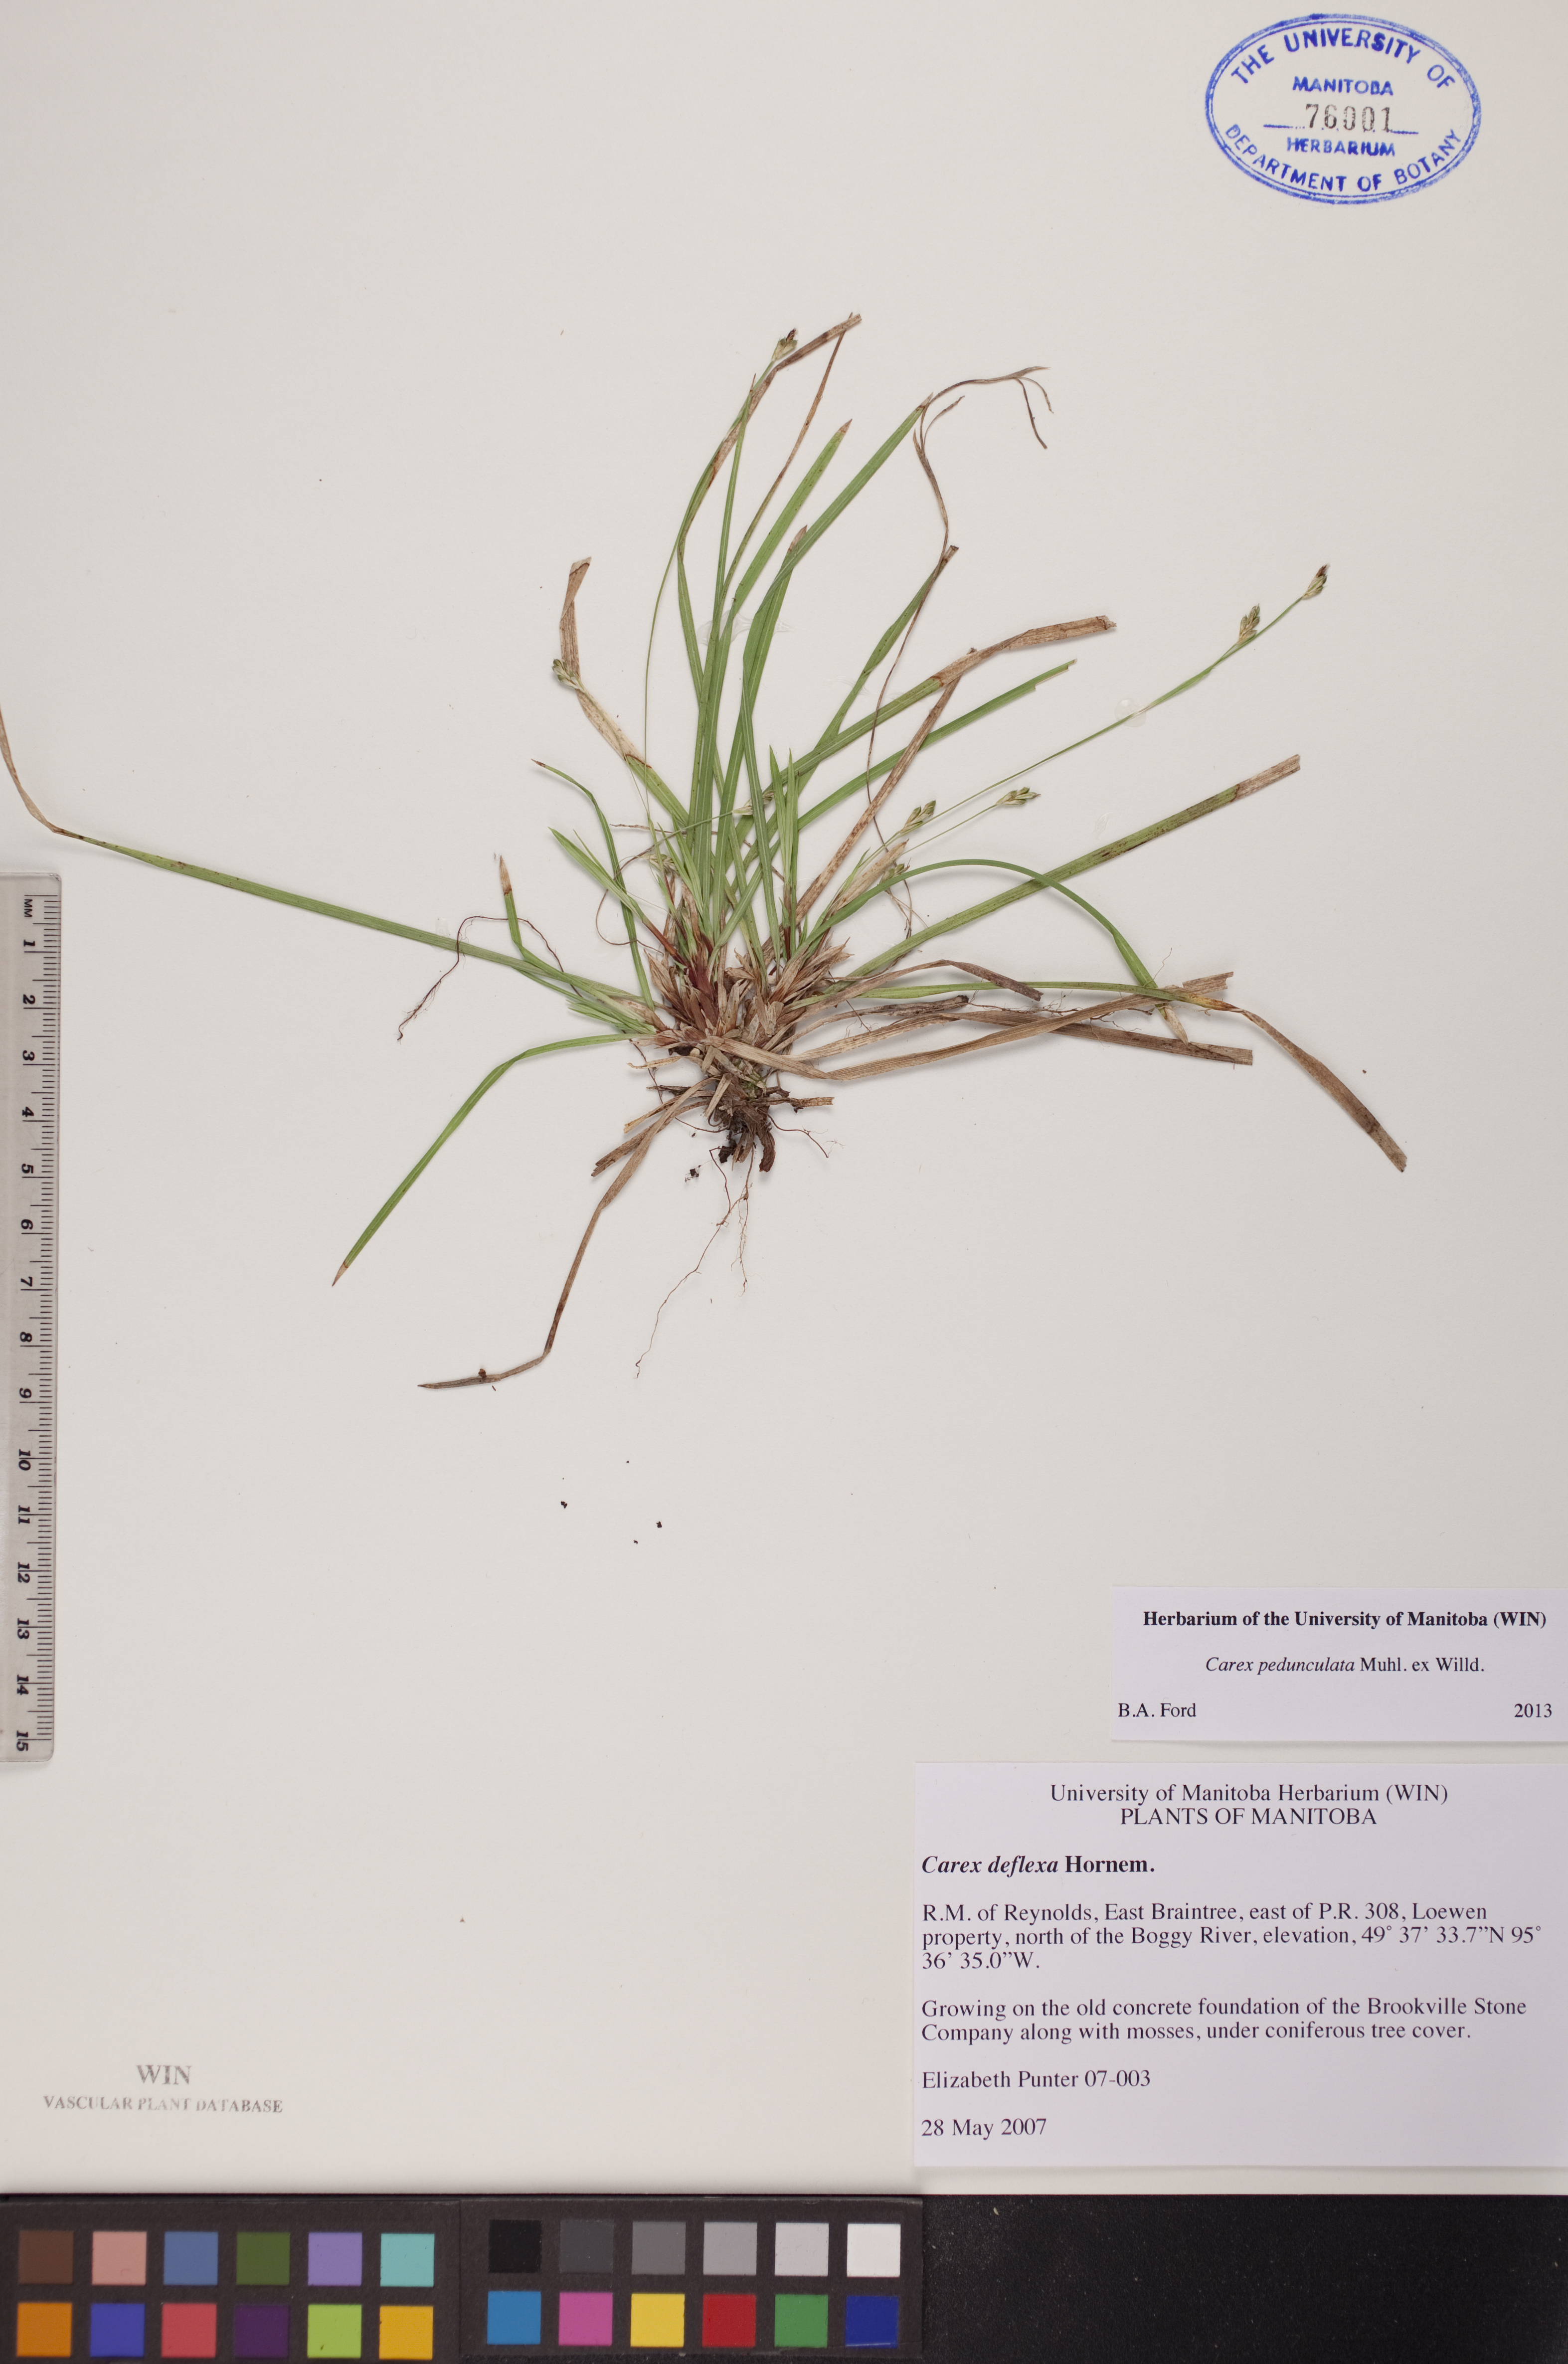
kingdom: Plantae
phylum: Tracheophyta
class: Liliopsida
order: Poales
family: Cyperaceae
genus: Carex
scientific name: Carex pedunculata
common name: Pedunculate sedge
